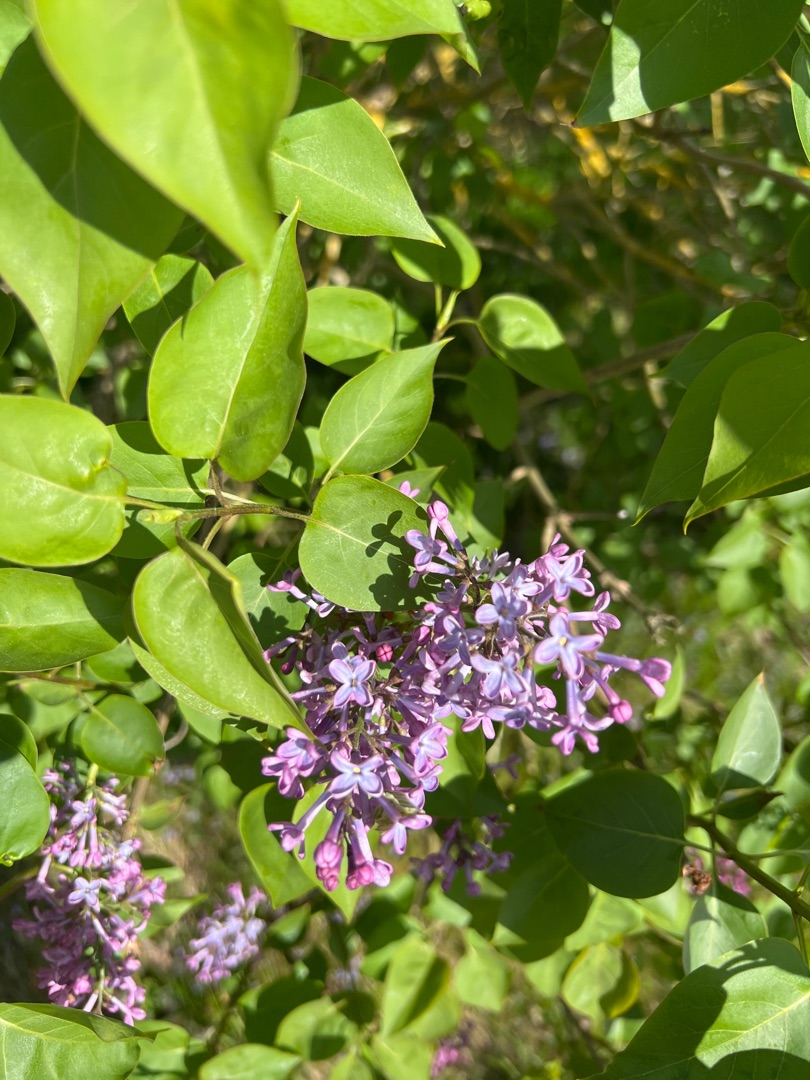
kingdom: Plantae
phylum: Tracheophyta
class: Magnoliopsida
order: Lamiales
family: Oleaceae
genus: Syringa
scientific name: Syringa vulgaris
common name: Syren
